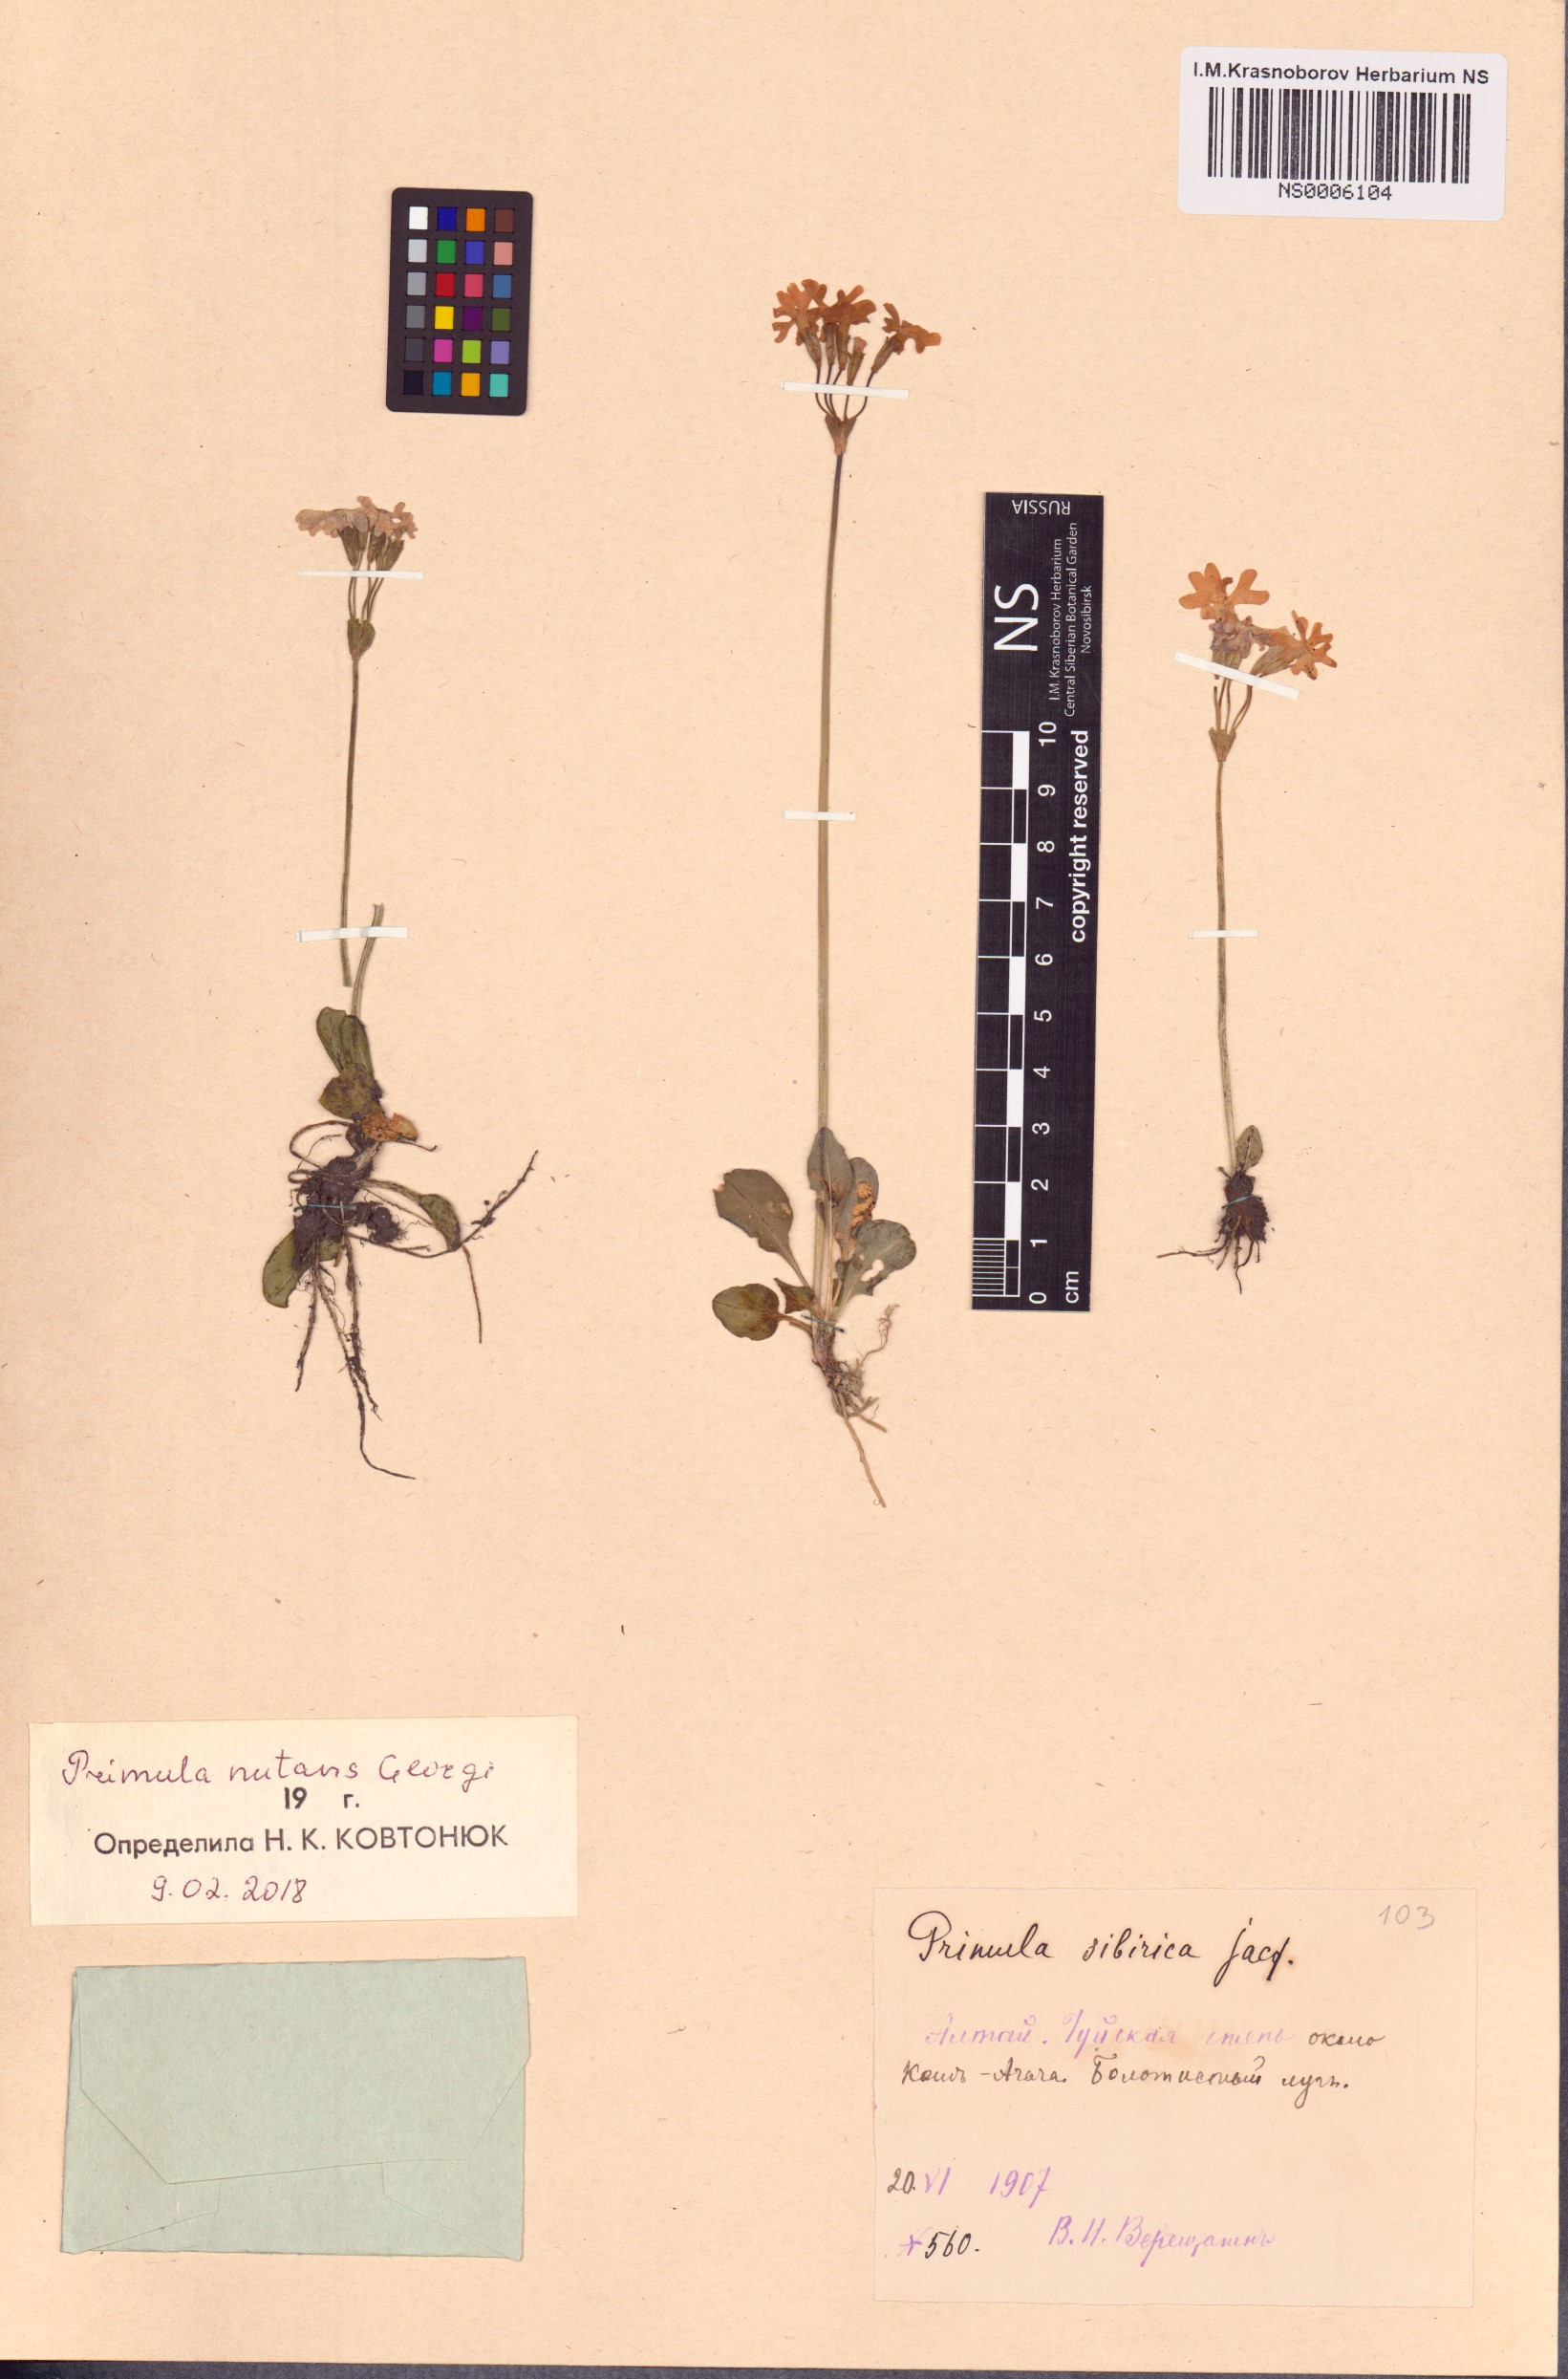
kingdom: Plantae
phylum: Tracheophyta
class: Magnoliopsida
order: Ericales
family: Primulaceae
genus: Primula
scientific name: Primula nutans
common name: Siberian primrose
